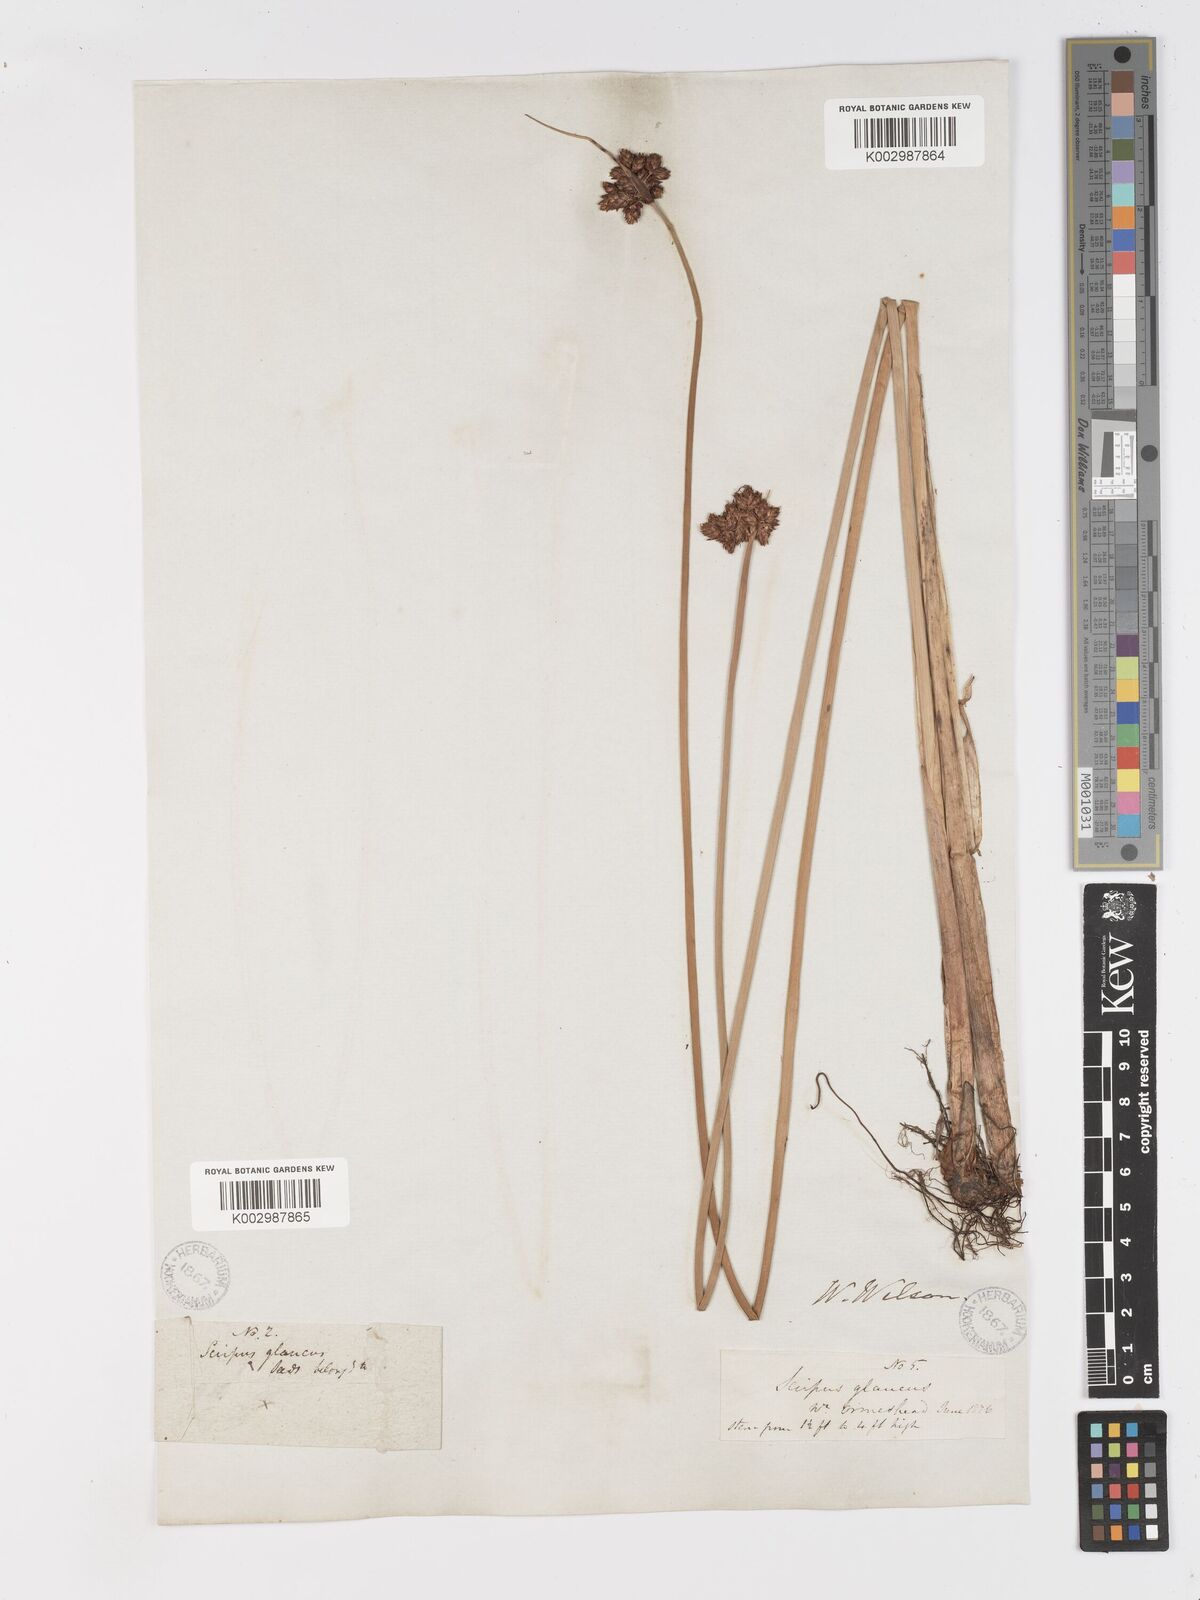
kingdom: Plantae
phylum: Tracheophyta
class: Liliopsida
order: Poales
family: Cyperaceae
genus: Schoenoplectus
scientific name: Schoenoplectus tabernaemontani
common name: Grey club-rush
